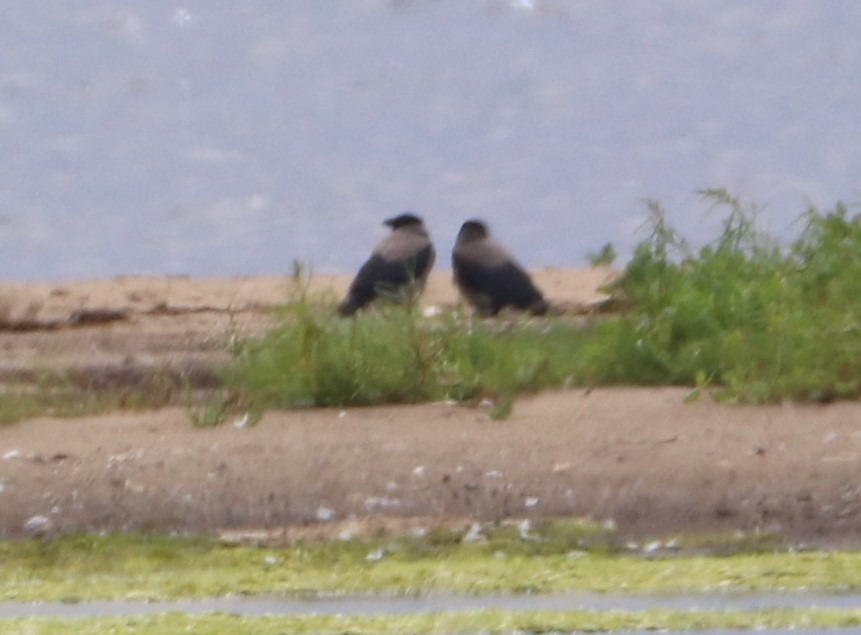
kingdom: Animalia
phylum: Chordata
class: Aves
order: Passeriformes
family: Corvidae
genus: Corvus
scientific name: Corvus cornix
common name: Gråkrage
